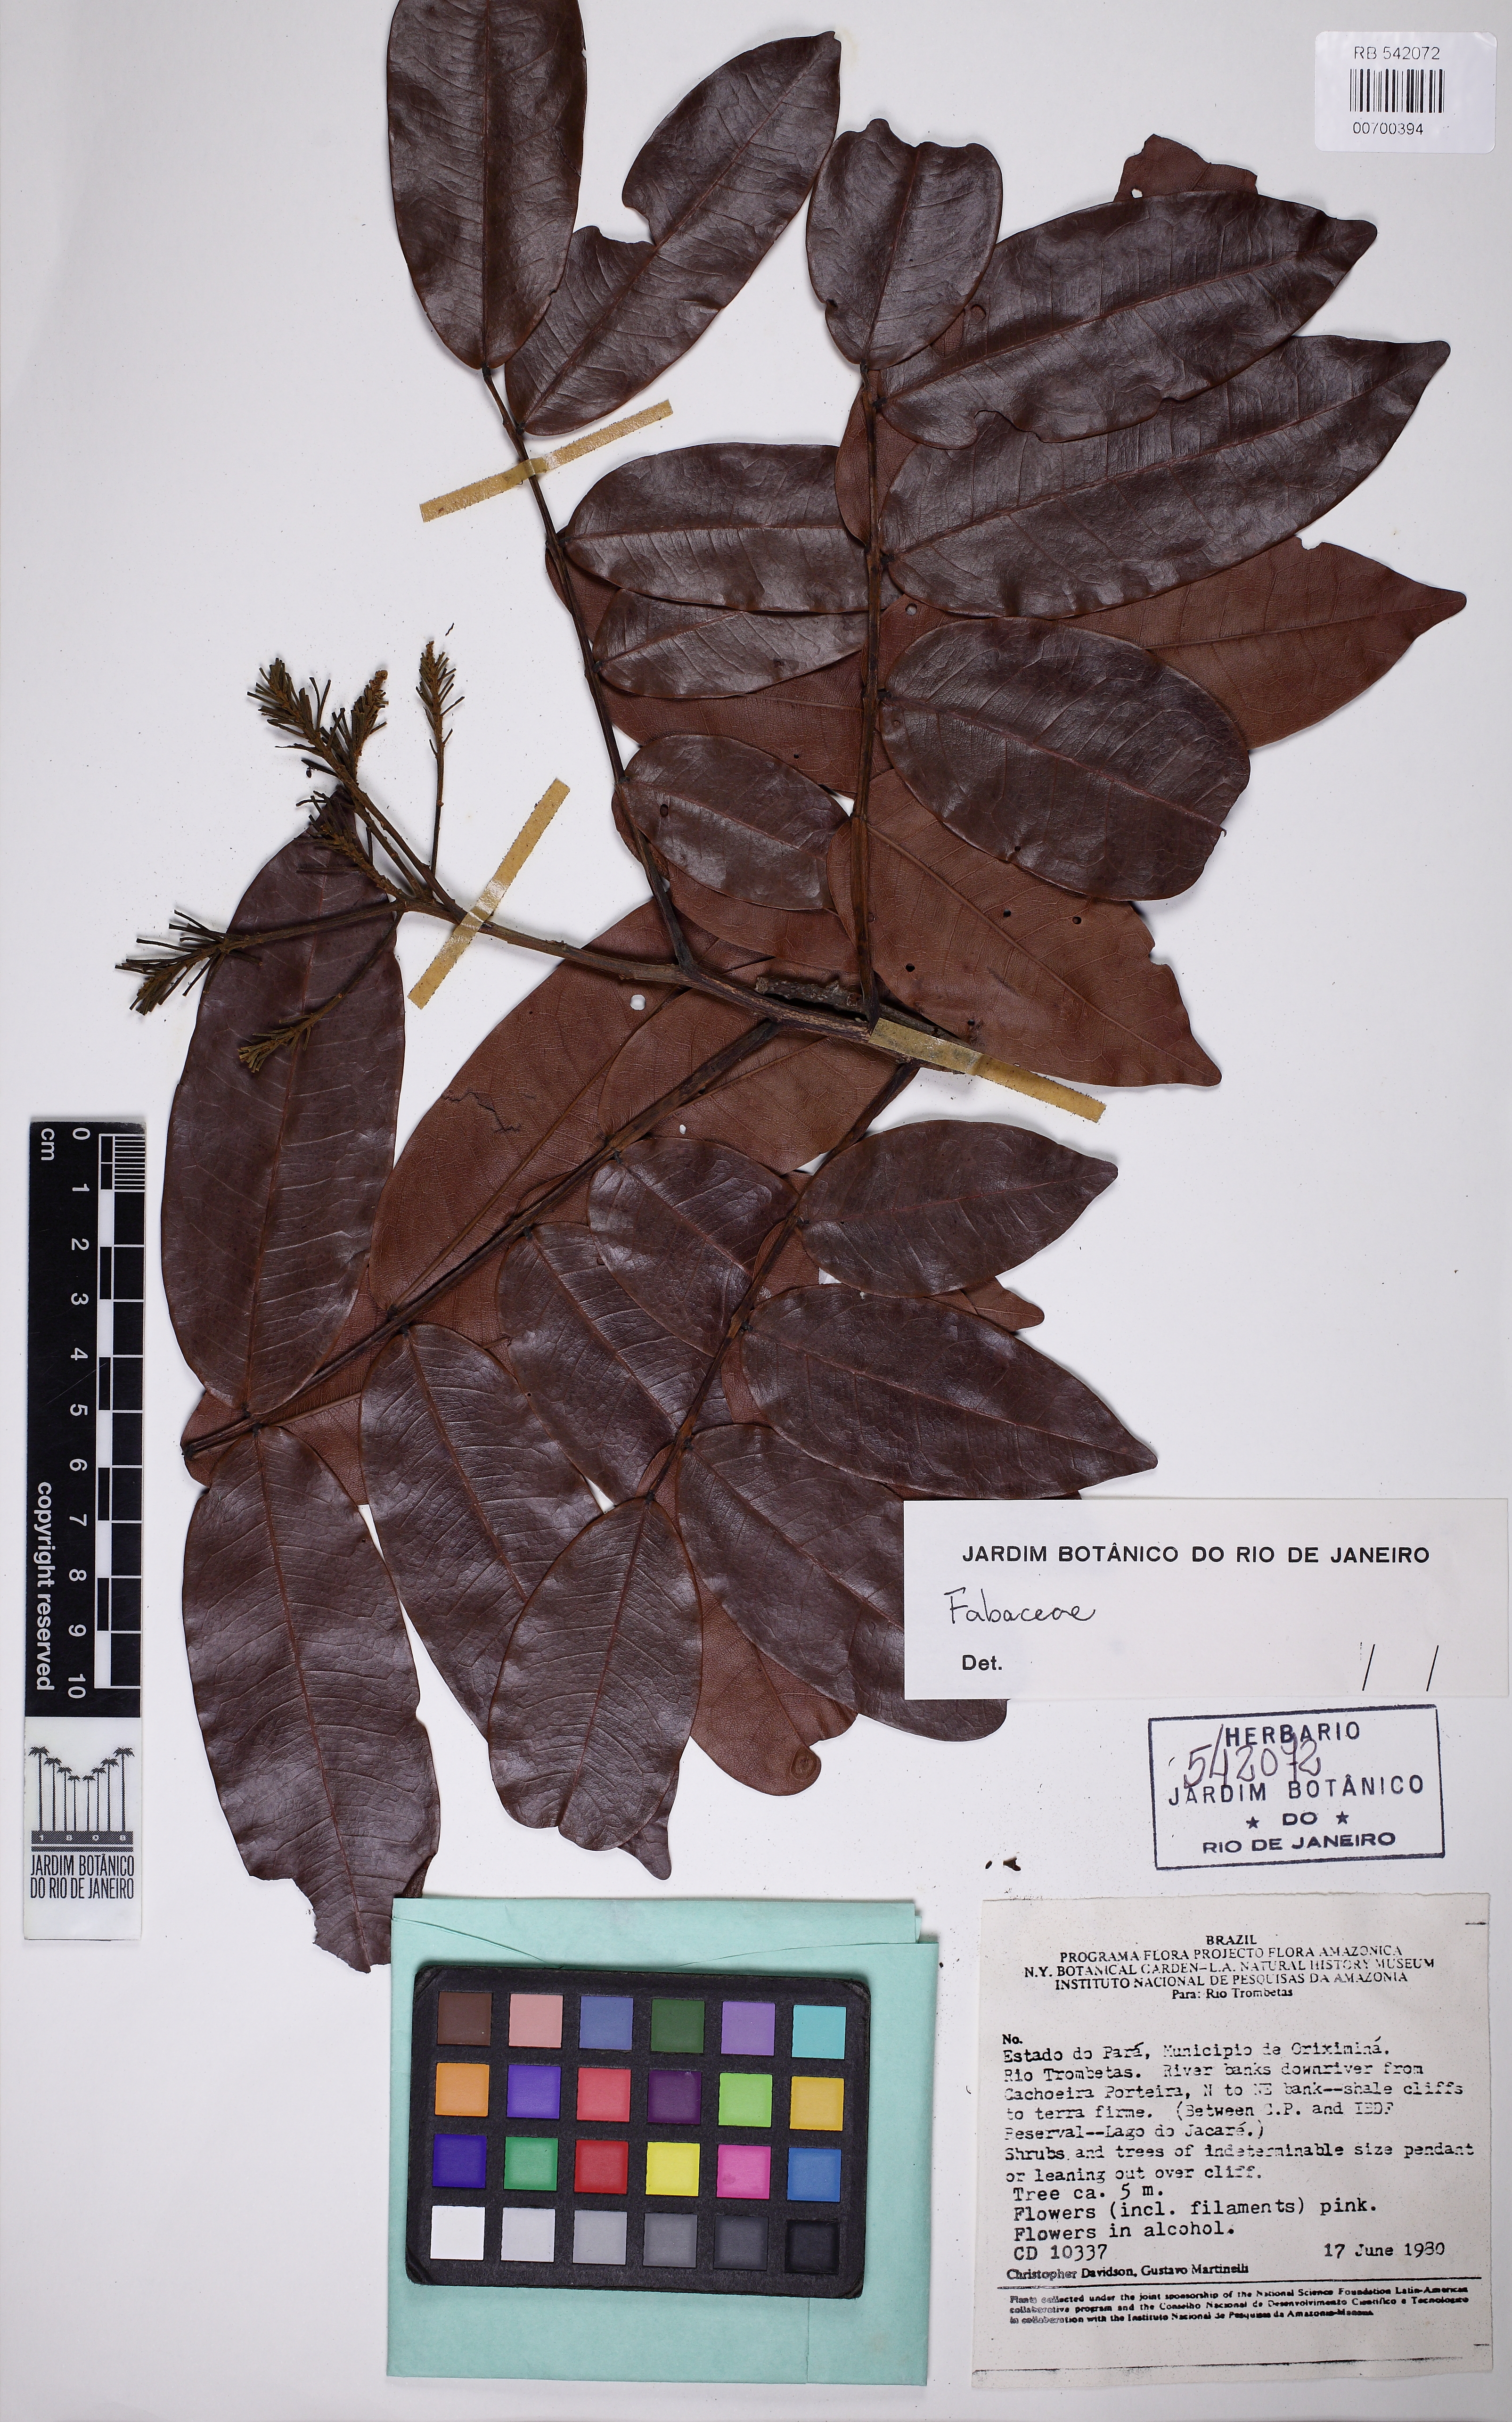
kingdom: Plantae
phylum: Tracheophyta
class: Magnoliopsida
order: Fabales
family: Fabaceae
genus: Campsiandra
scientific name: Campsiandra
